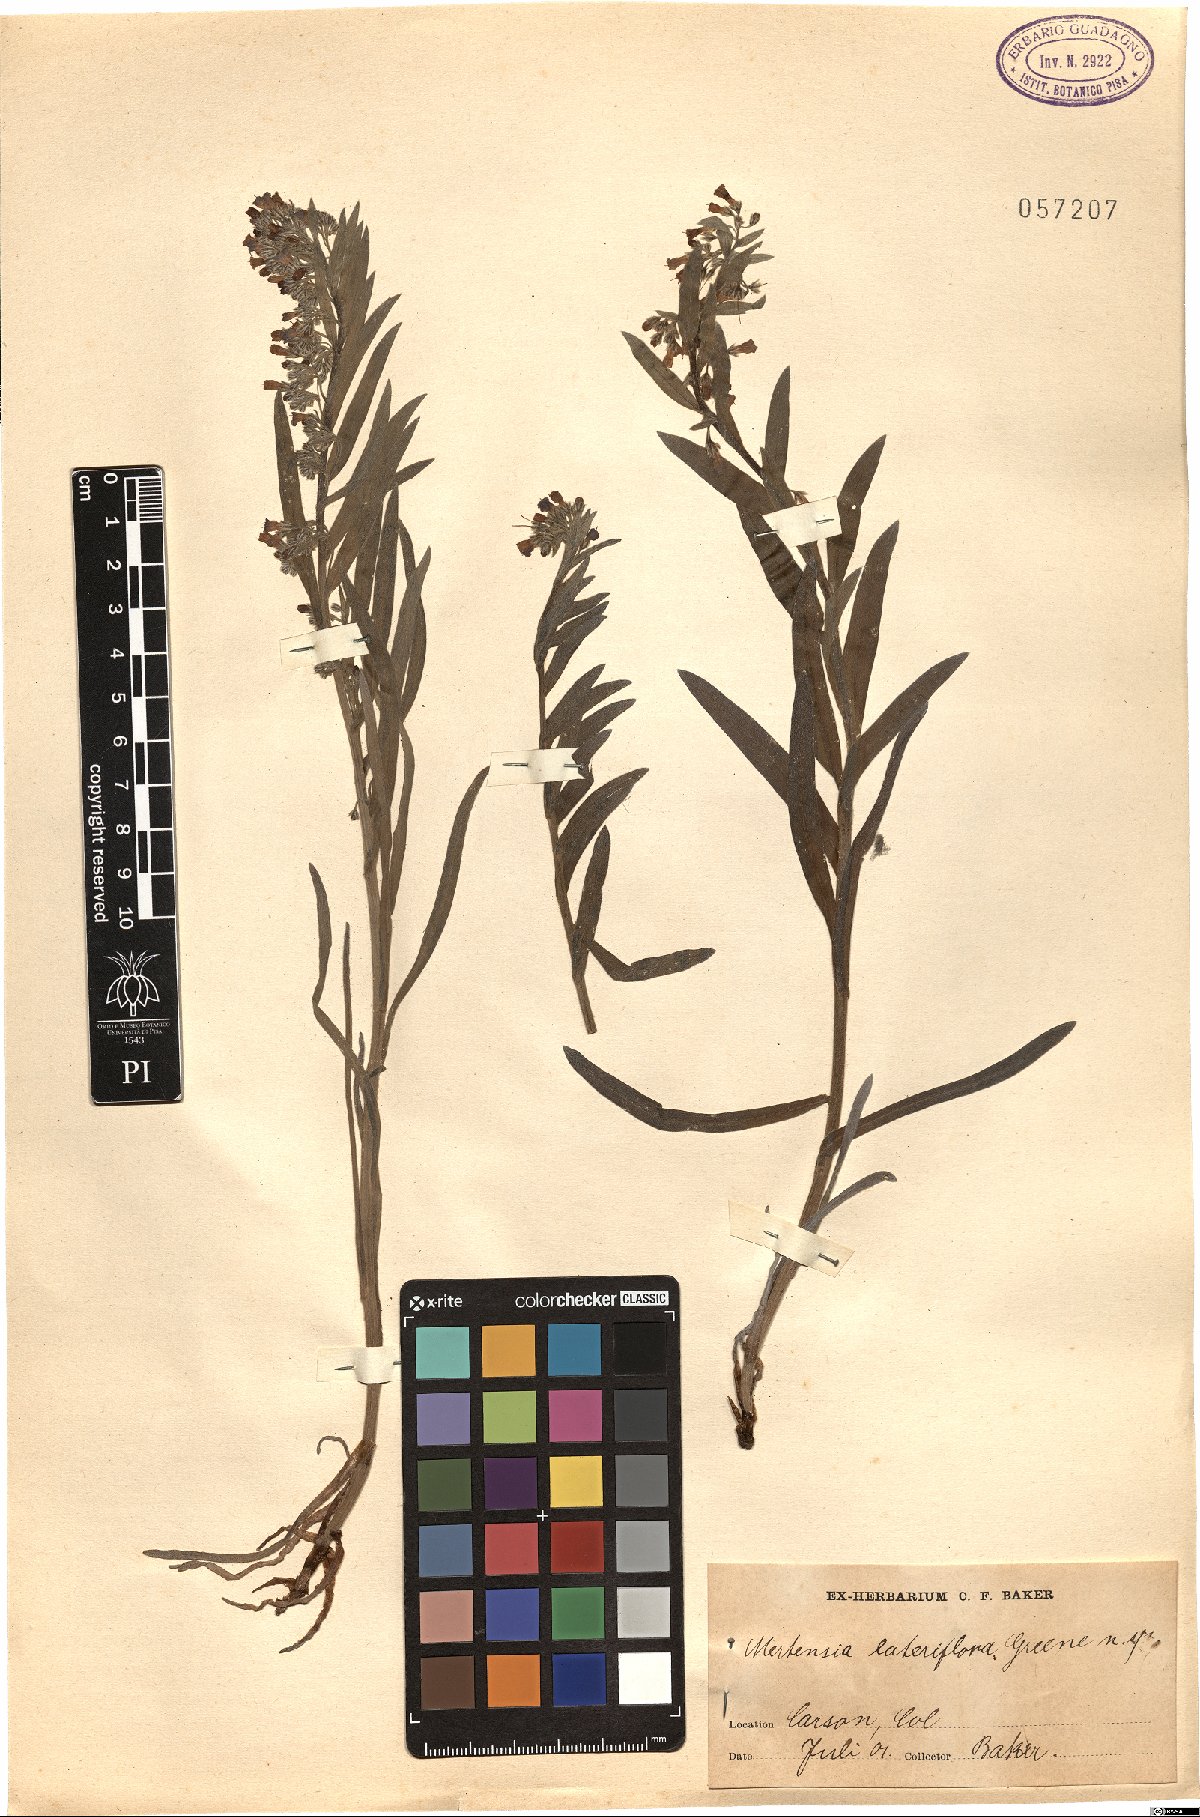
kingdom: Plantae
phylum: Tracheophyta
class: Magnoliopsida
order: Boraginales
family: Boraginaceae
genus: Mertensia
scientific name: Mertensia lateriflora
